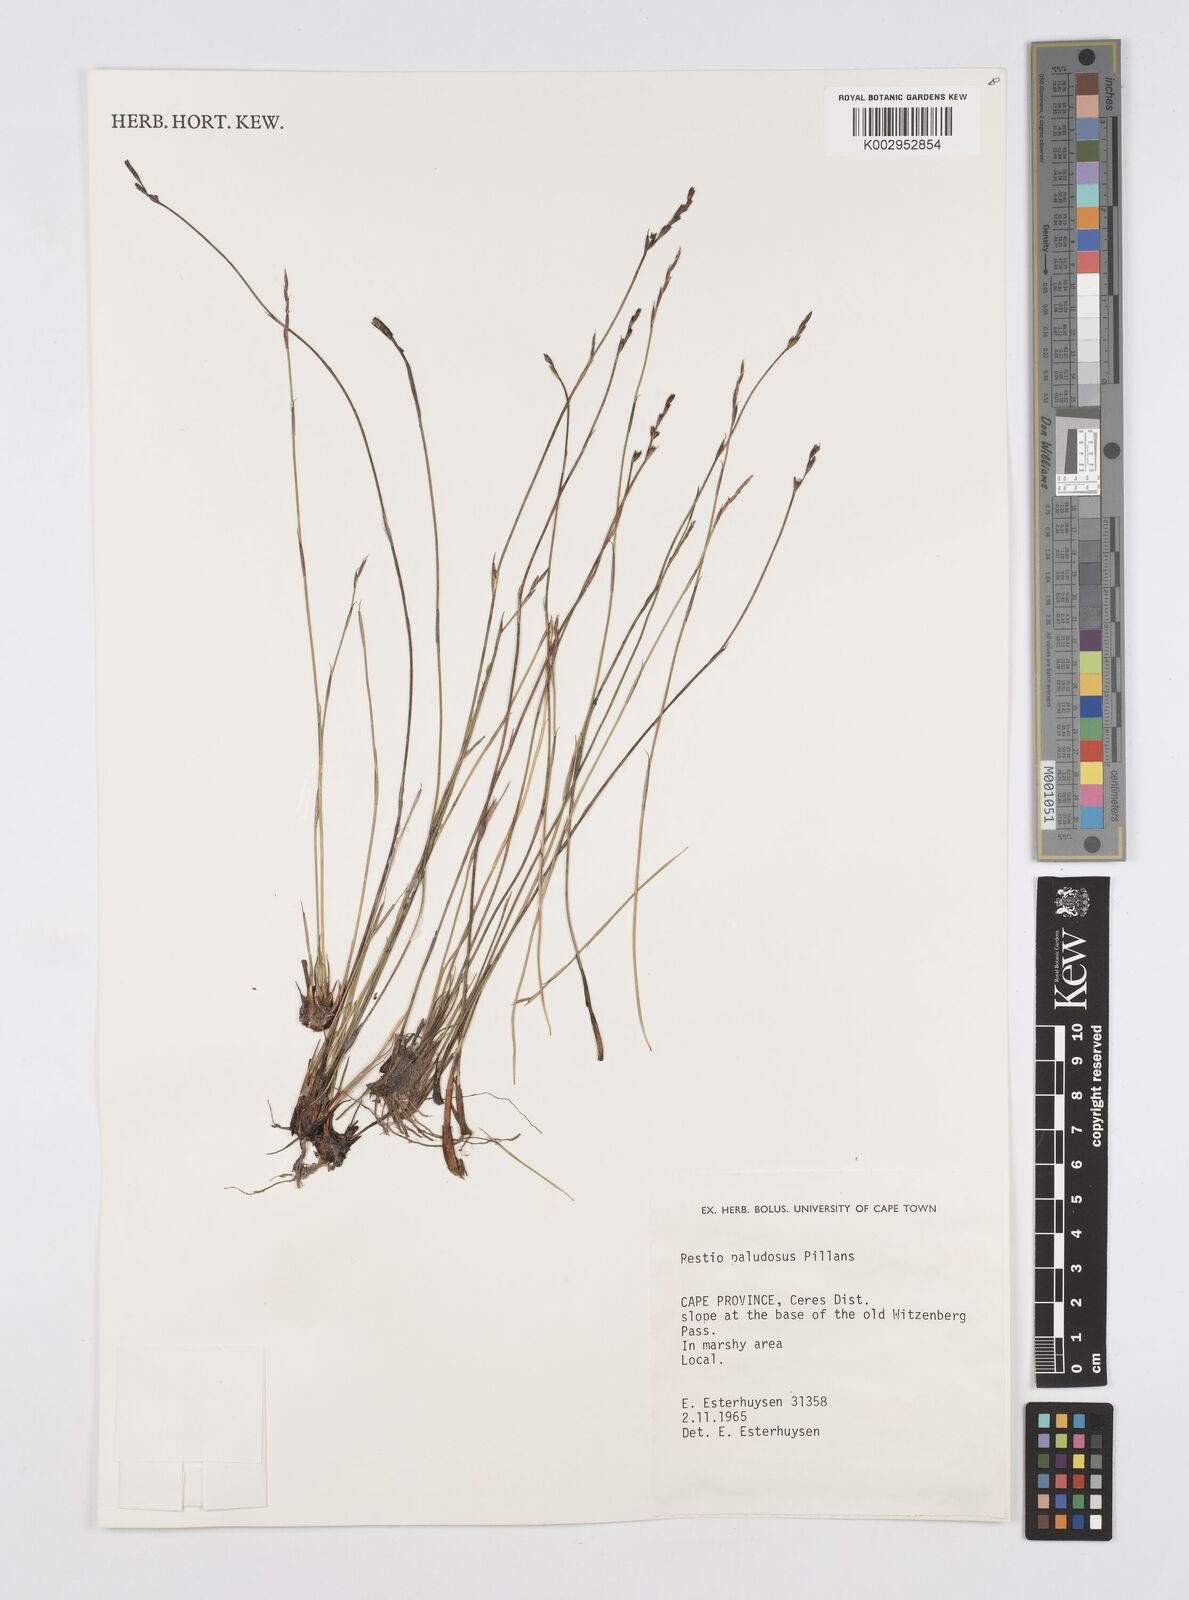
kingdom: Plantae
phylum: Tracheophyta
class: Liliopsida
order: Poales
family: Restionaceae
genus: Restio
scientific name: Restio paludosus
